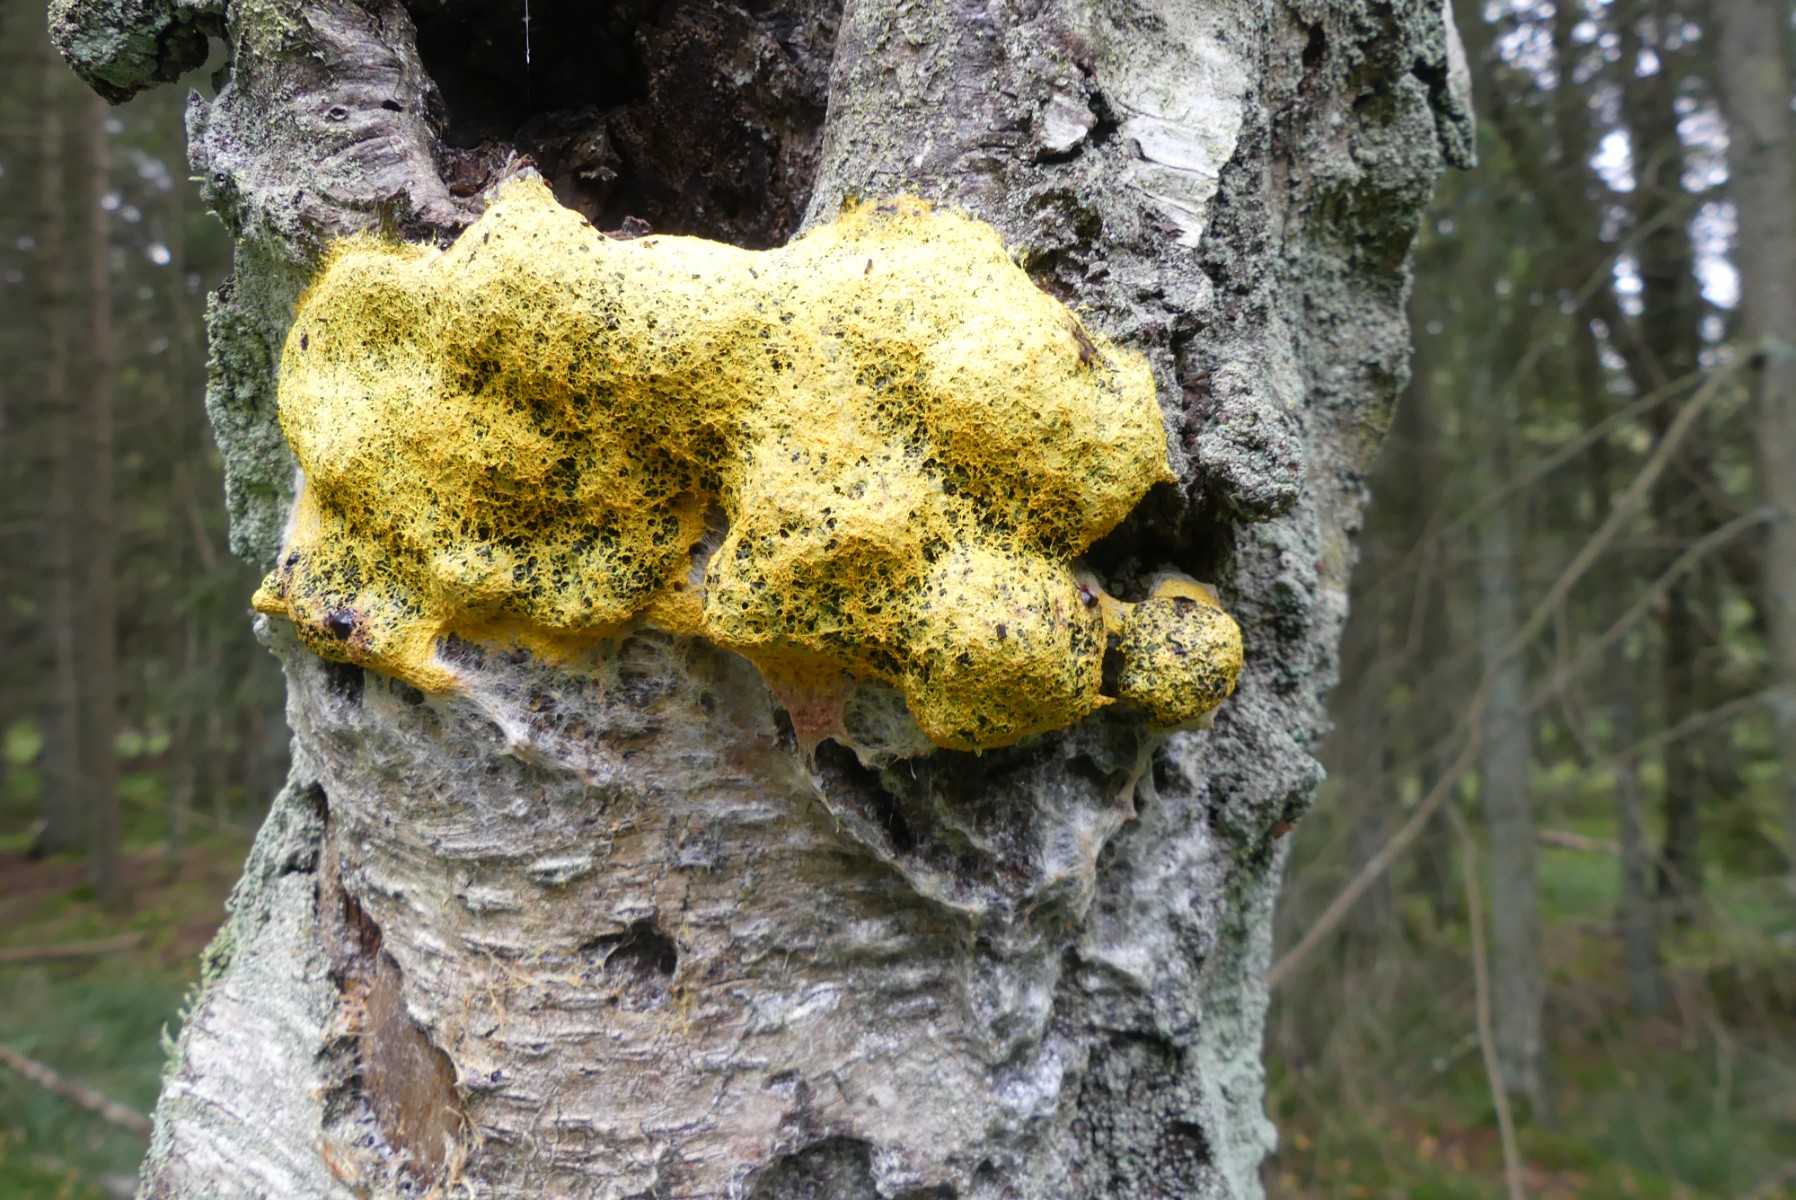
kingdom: Protozoa
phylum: Mycetozoa
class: Myxomycetes
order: Physarales
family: Physaraceae
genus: Fuligo
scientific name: Fuligo septica
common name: gul troldsmør
